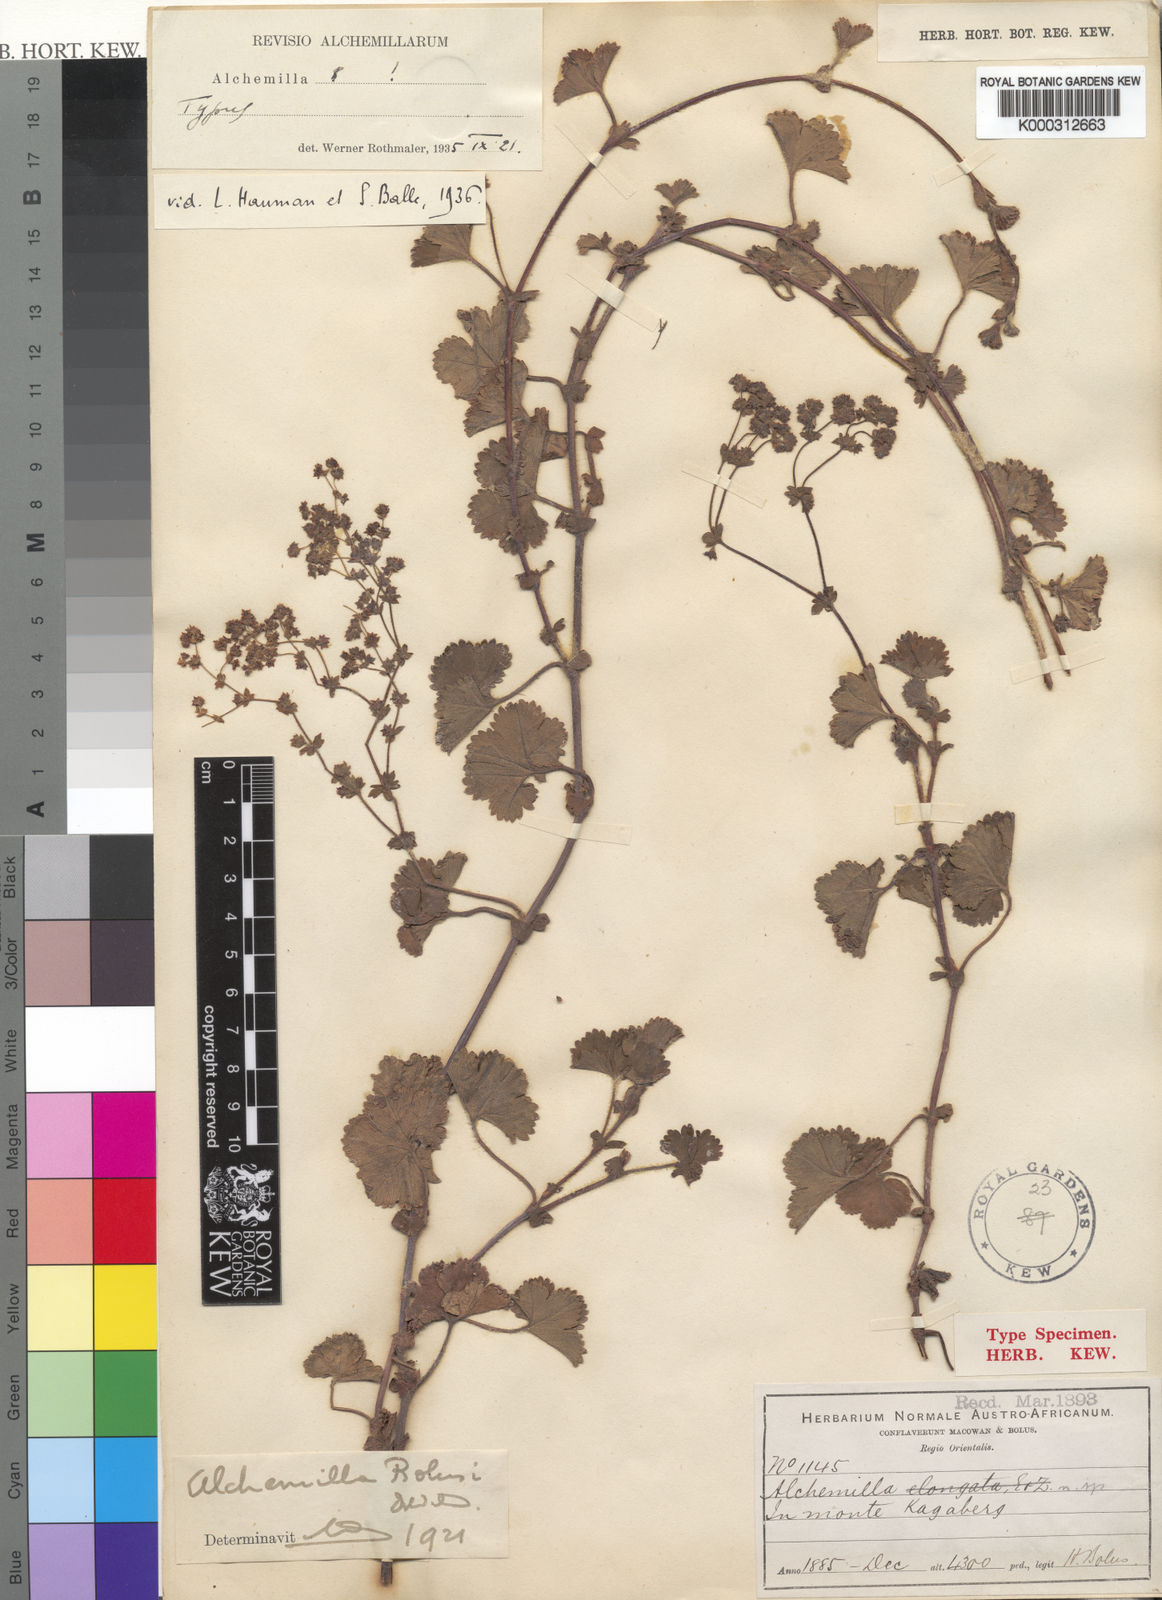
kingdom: Plantae
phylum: Tracheophyta
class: Magnoliopsida
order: Rosales
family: Rosaceae
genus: Alchemilla
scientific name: Alchemilla incurvata
